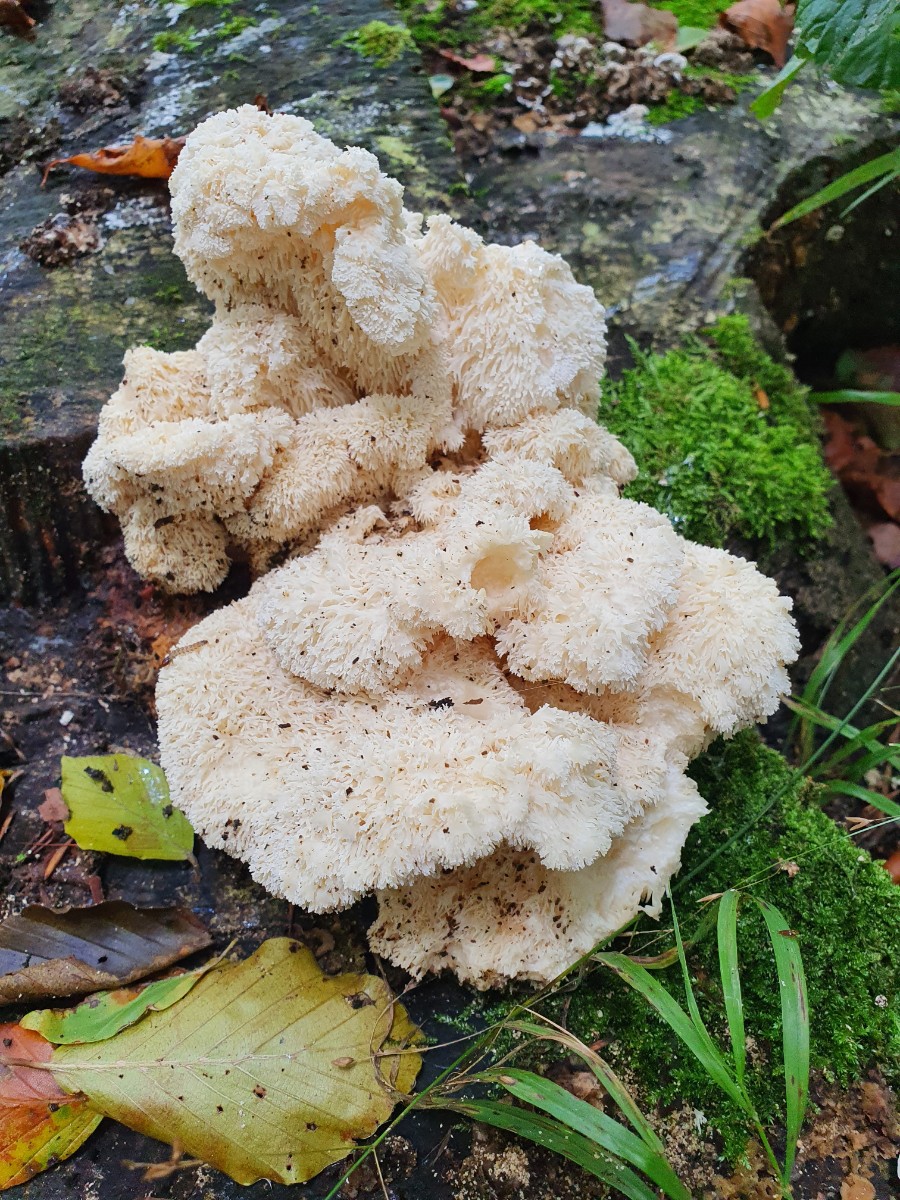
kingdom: Fungi
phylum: Basidiomycota
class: Agaricomycetes
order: Russulales
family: Hericiaceae
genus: Hericium
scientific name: Hericium cirrhatum
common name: børstepigsvamp
